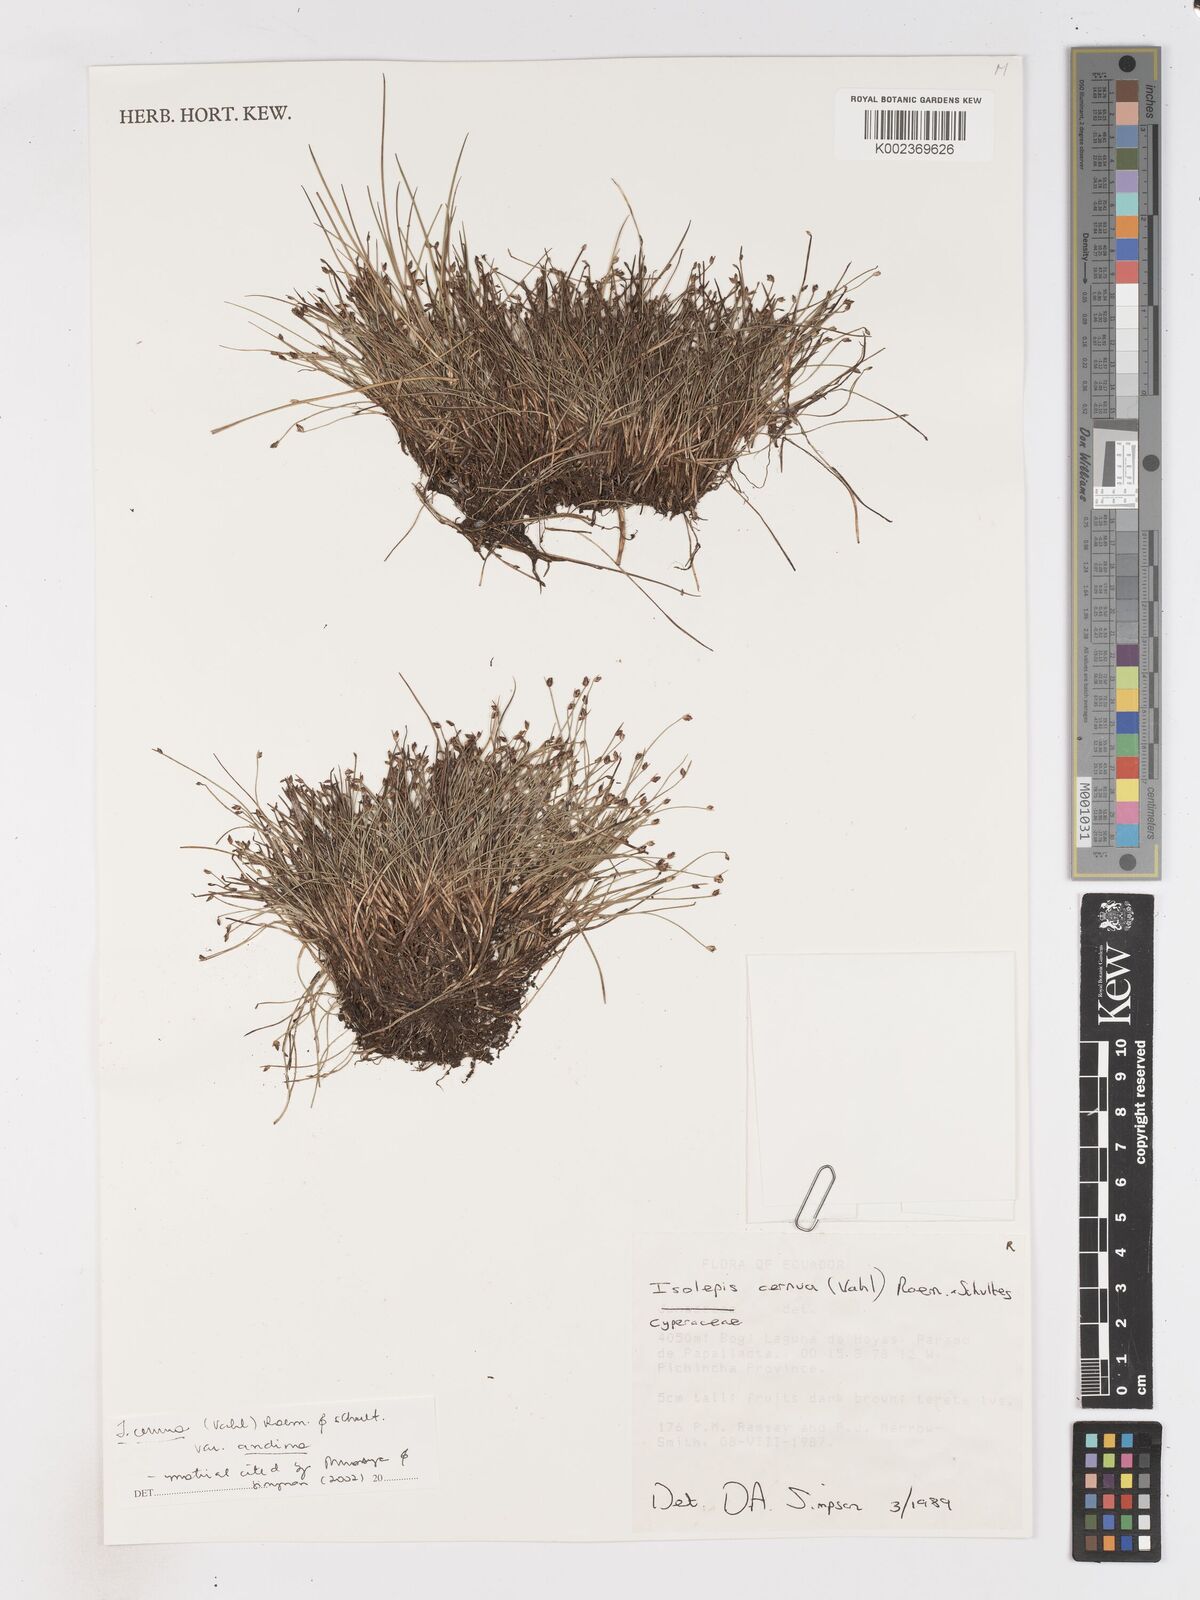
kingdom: Plantae
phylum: Tracheophyta
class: Liliopsida
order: Poales
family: Cyperaceae
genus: Isolepis
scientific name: Isolepis cernua
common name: Slender club-rush
